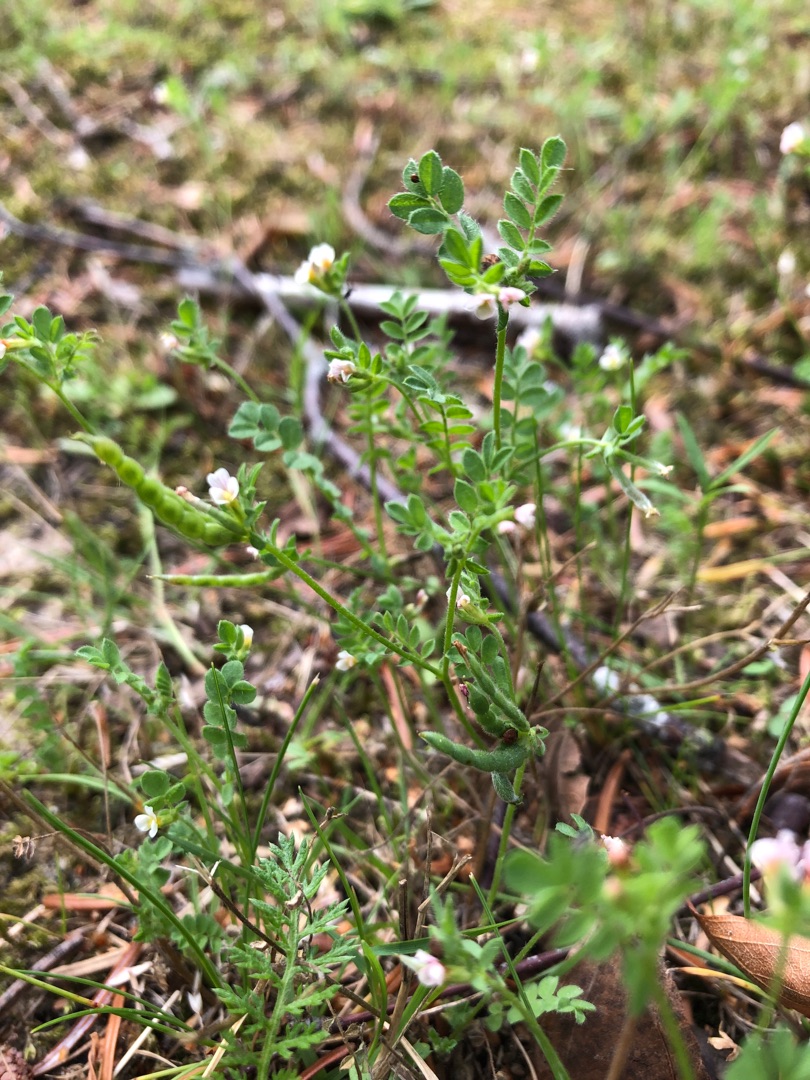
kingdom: Plantae
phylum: Tracheophyta
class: Magnoliopsida
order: Fabales
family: Fabaceae
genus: Ornithopus
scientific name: Ornithopus perpusillus
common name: Liden fugleklo
